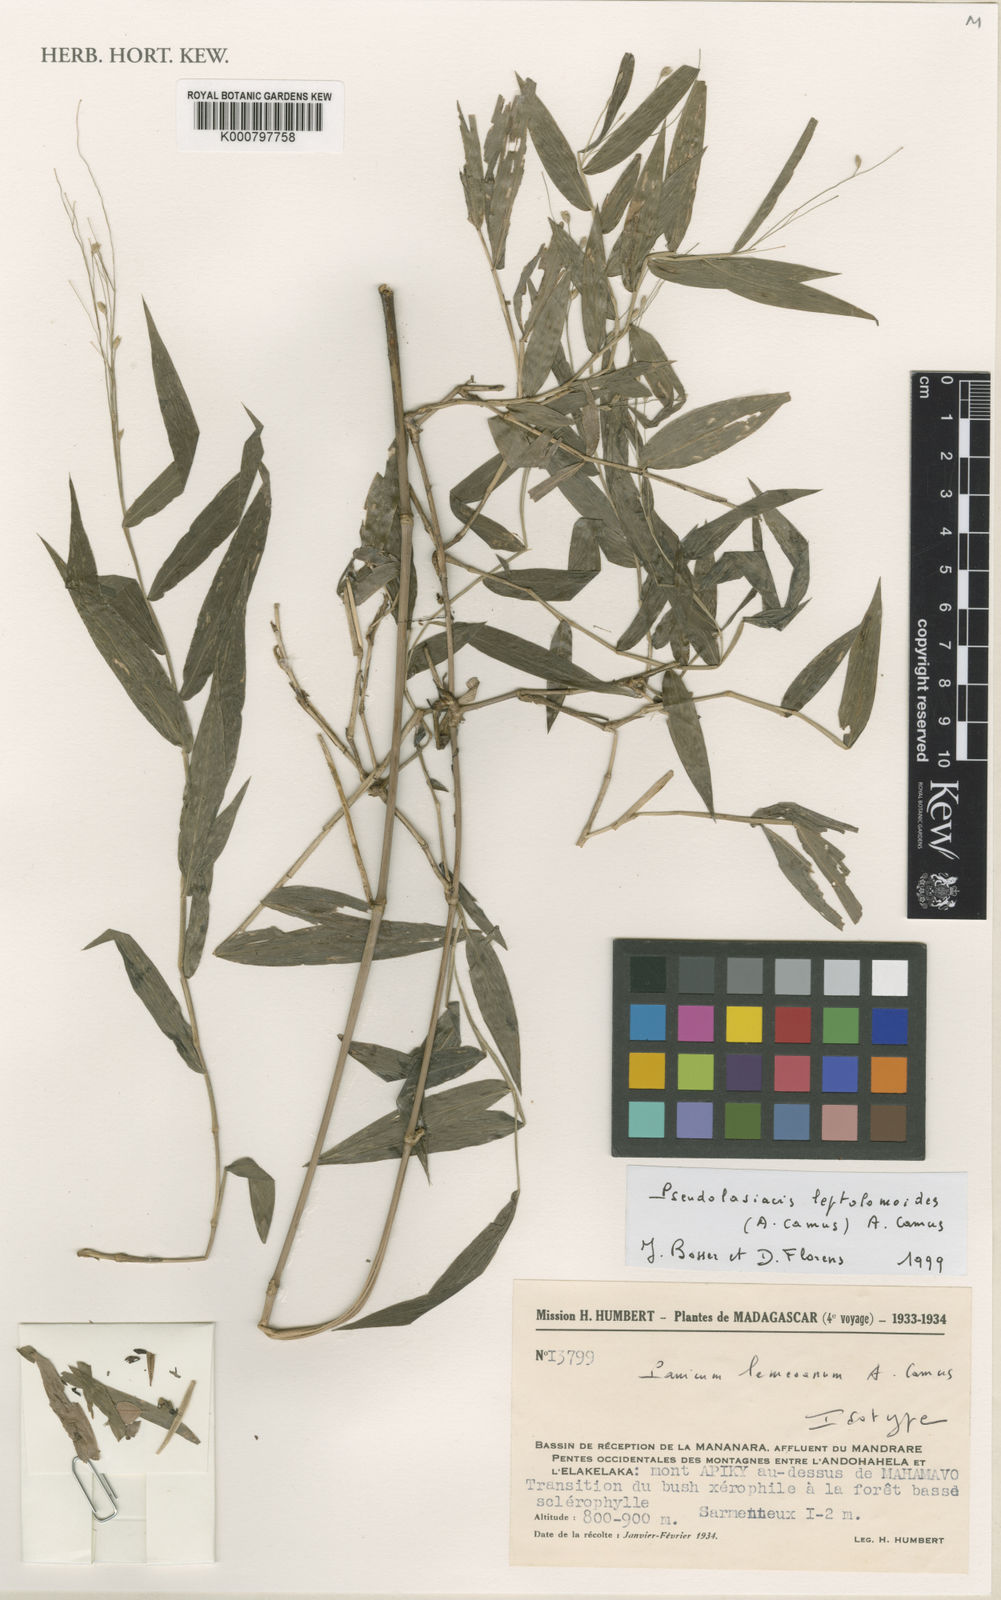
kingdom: Plantae
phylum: Tracheophyta
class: Liliopsida
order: Poales
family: Poaceae
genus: Pseudolasiacis
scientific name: Pseudolasiacis leptolomoides
